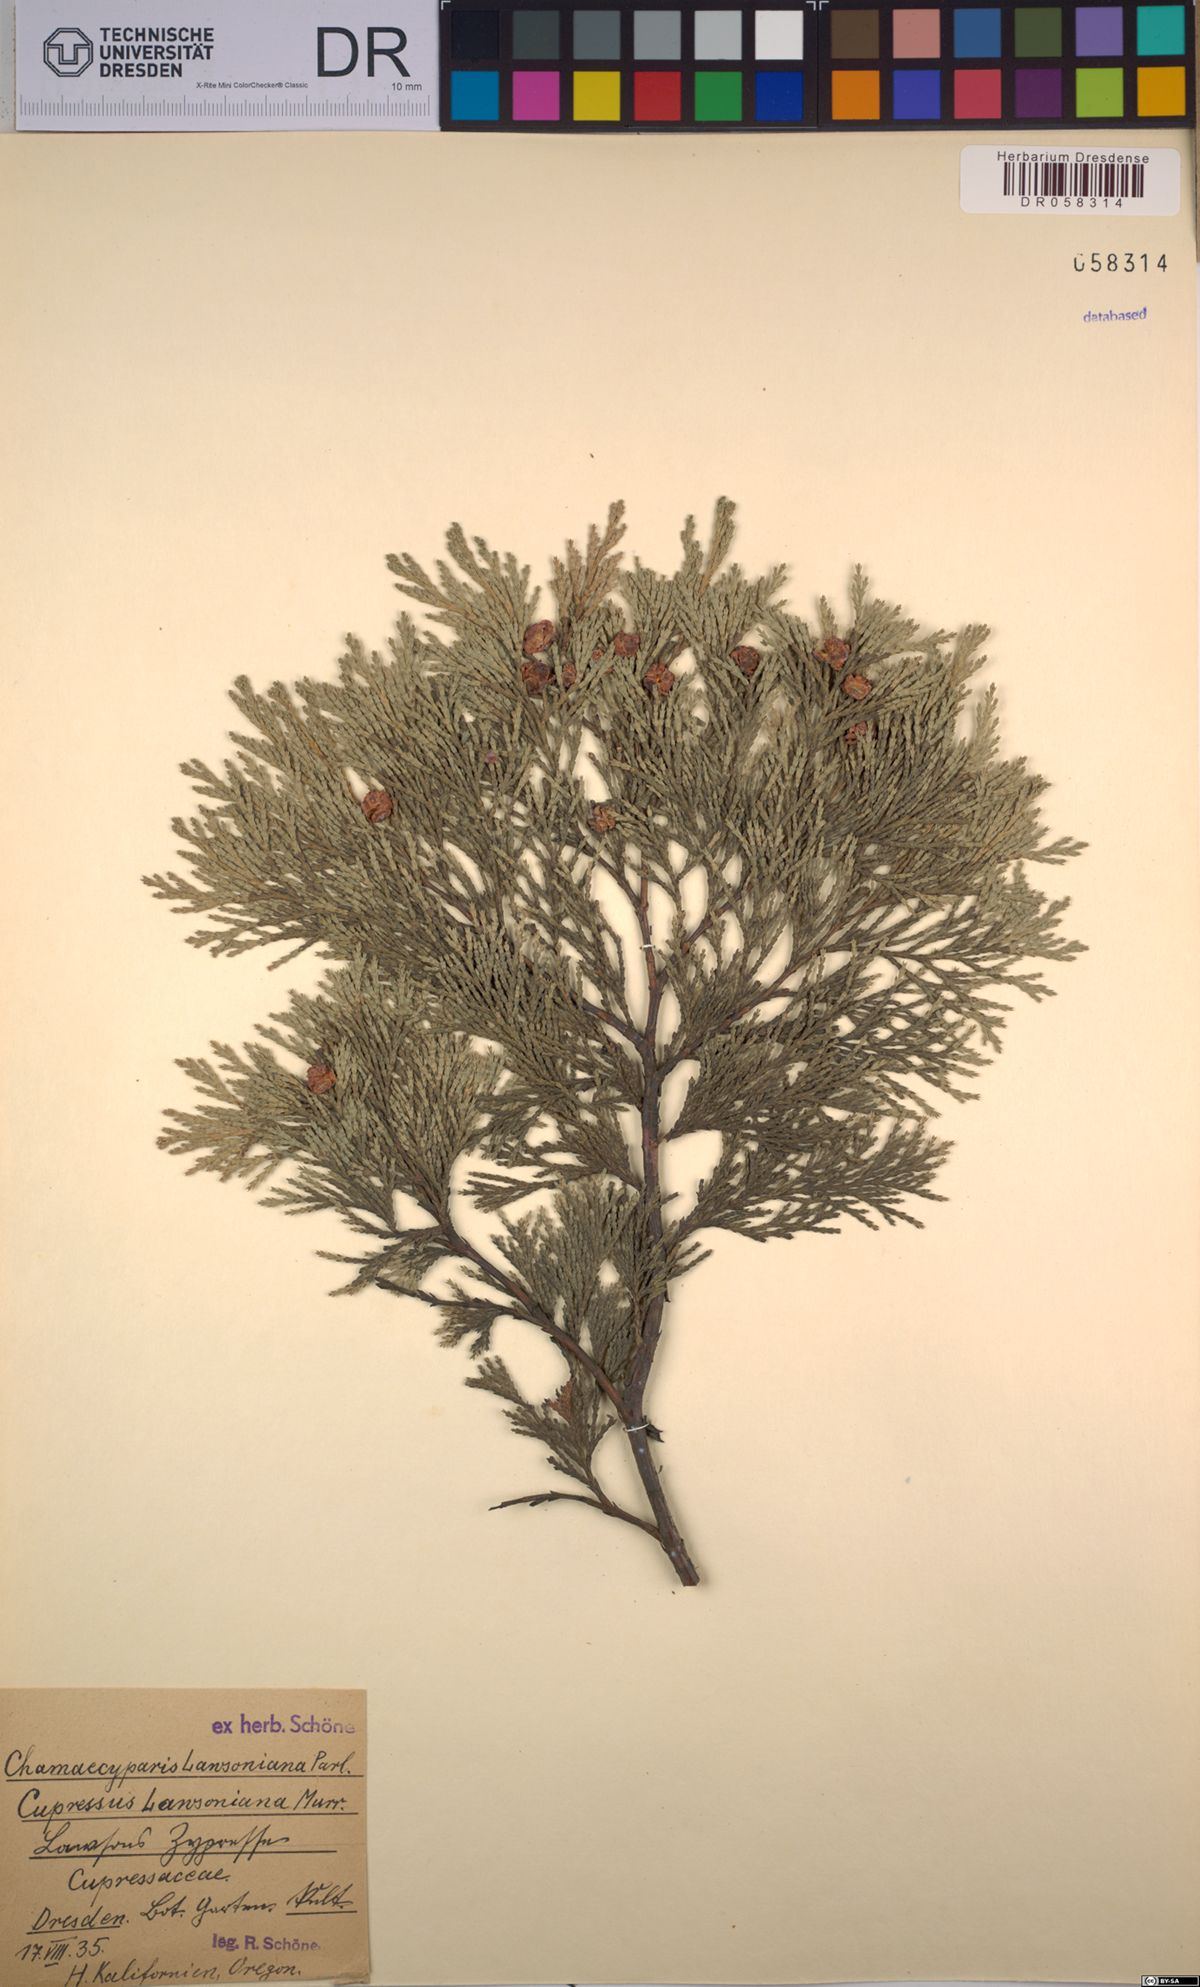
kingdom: Plantae
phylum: Tracheophyta
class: Pinopsida
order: Pinales
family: Cupressaceae
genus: Chamaecyparis
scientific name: Chamaecyparis lawsoniana
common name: Lawson's cypress
